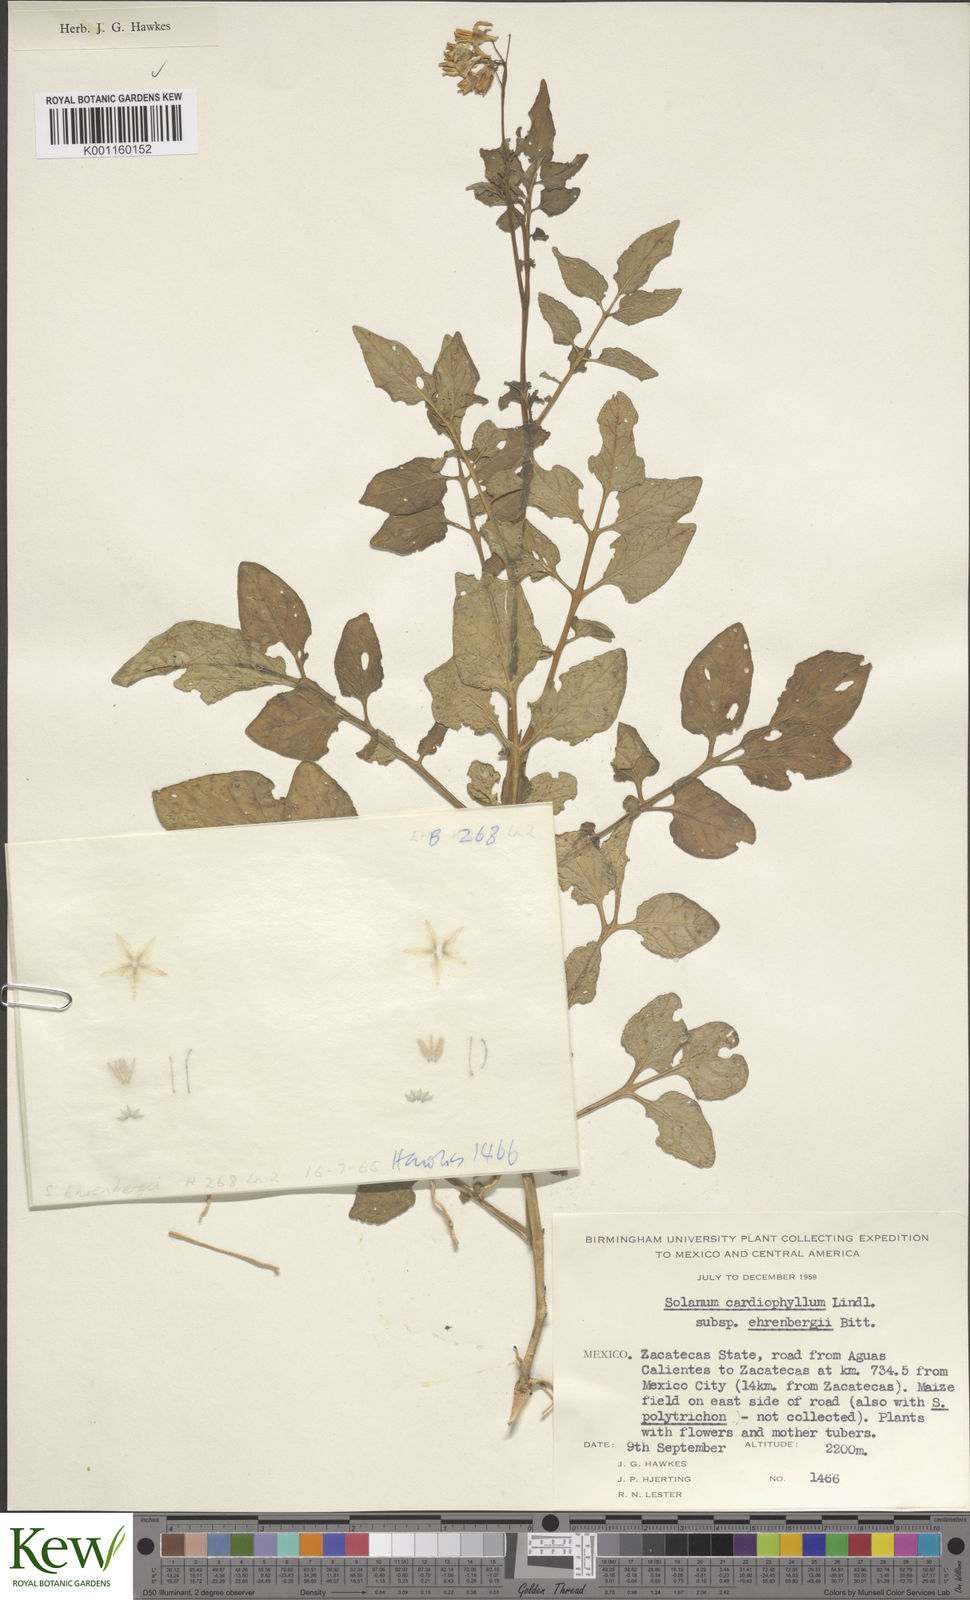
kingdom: Plantae
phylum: Tracheophyta
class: Magnoliopsida
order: Solanales
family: Solanaceae
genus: Solanum
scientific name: Solanum cardiophyllum
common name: Heartleaf horsenettle
